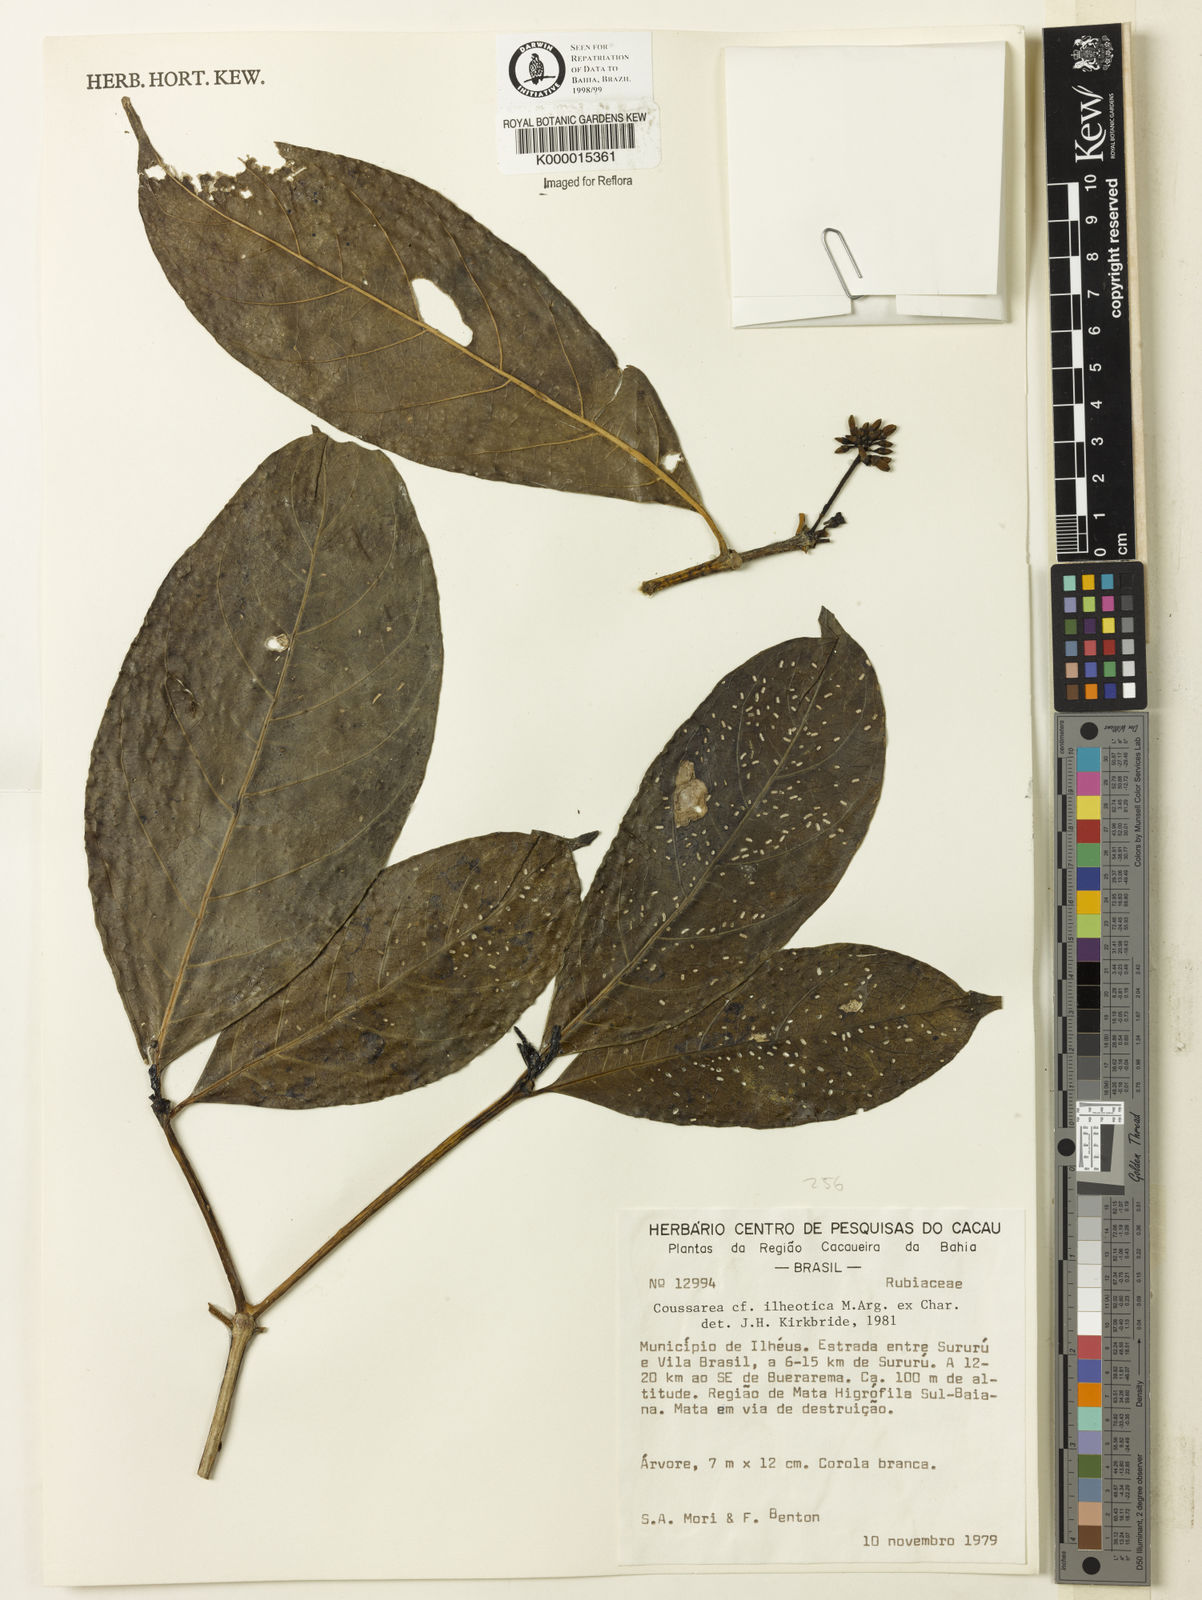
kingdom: Plantae
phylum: Tracheophyta
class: Magnoliopsida
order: Gentianales
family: Rubiaceae
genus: Coussarea
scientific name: Coussarea ilheotica
